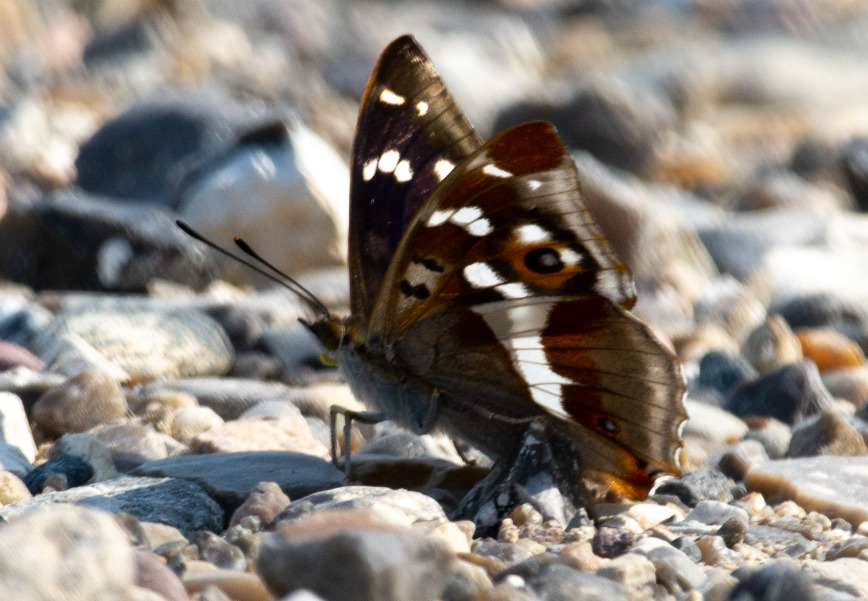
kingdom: Animalia
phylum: Arthropoda
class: Insecta
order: Lepidoptera
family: Nymphalidae
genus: Apatura
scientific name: Apatura iris
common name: Iris
